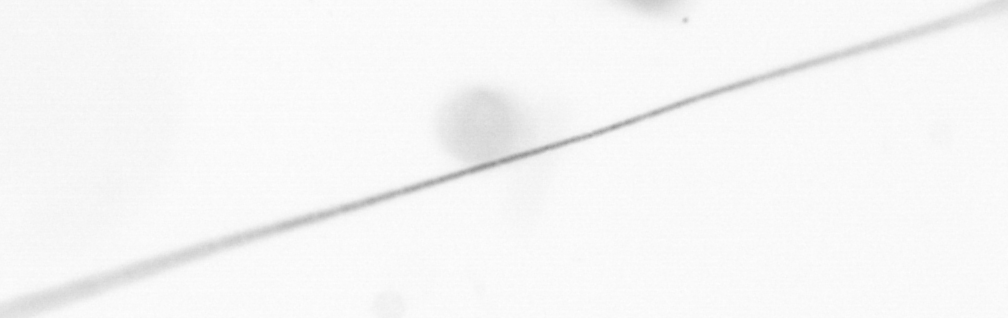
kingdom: Chromista
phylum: Ochrophyta
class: Bacillariophyceae
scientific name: Bacillariophyceae
